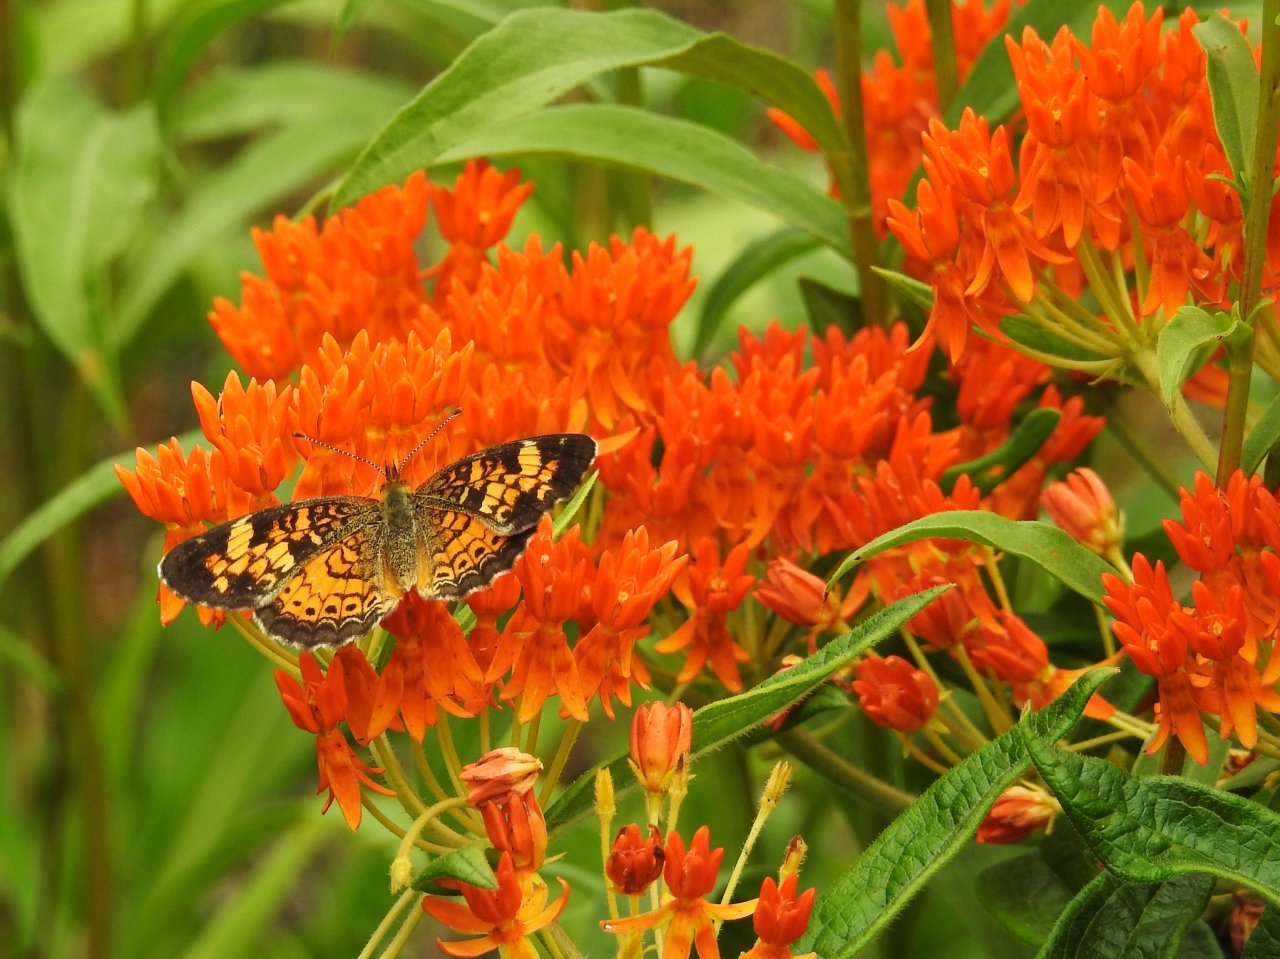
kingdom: Animalia
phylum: Arthropoda
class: Insecta
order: Lepidoptera
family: Nymphalidae
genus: Phyciodes
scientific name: Phyciodes tharos
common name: Pearl Crescent
